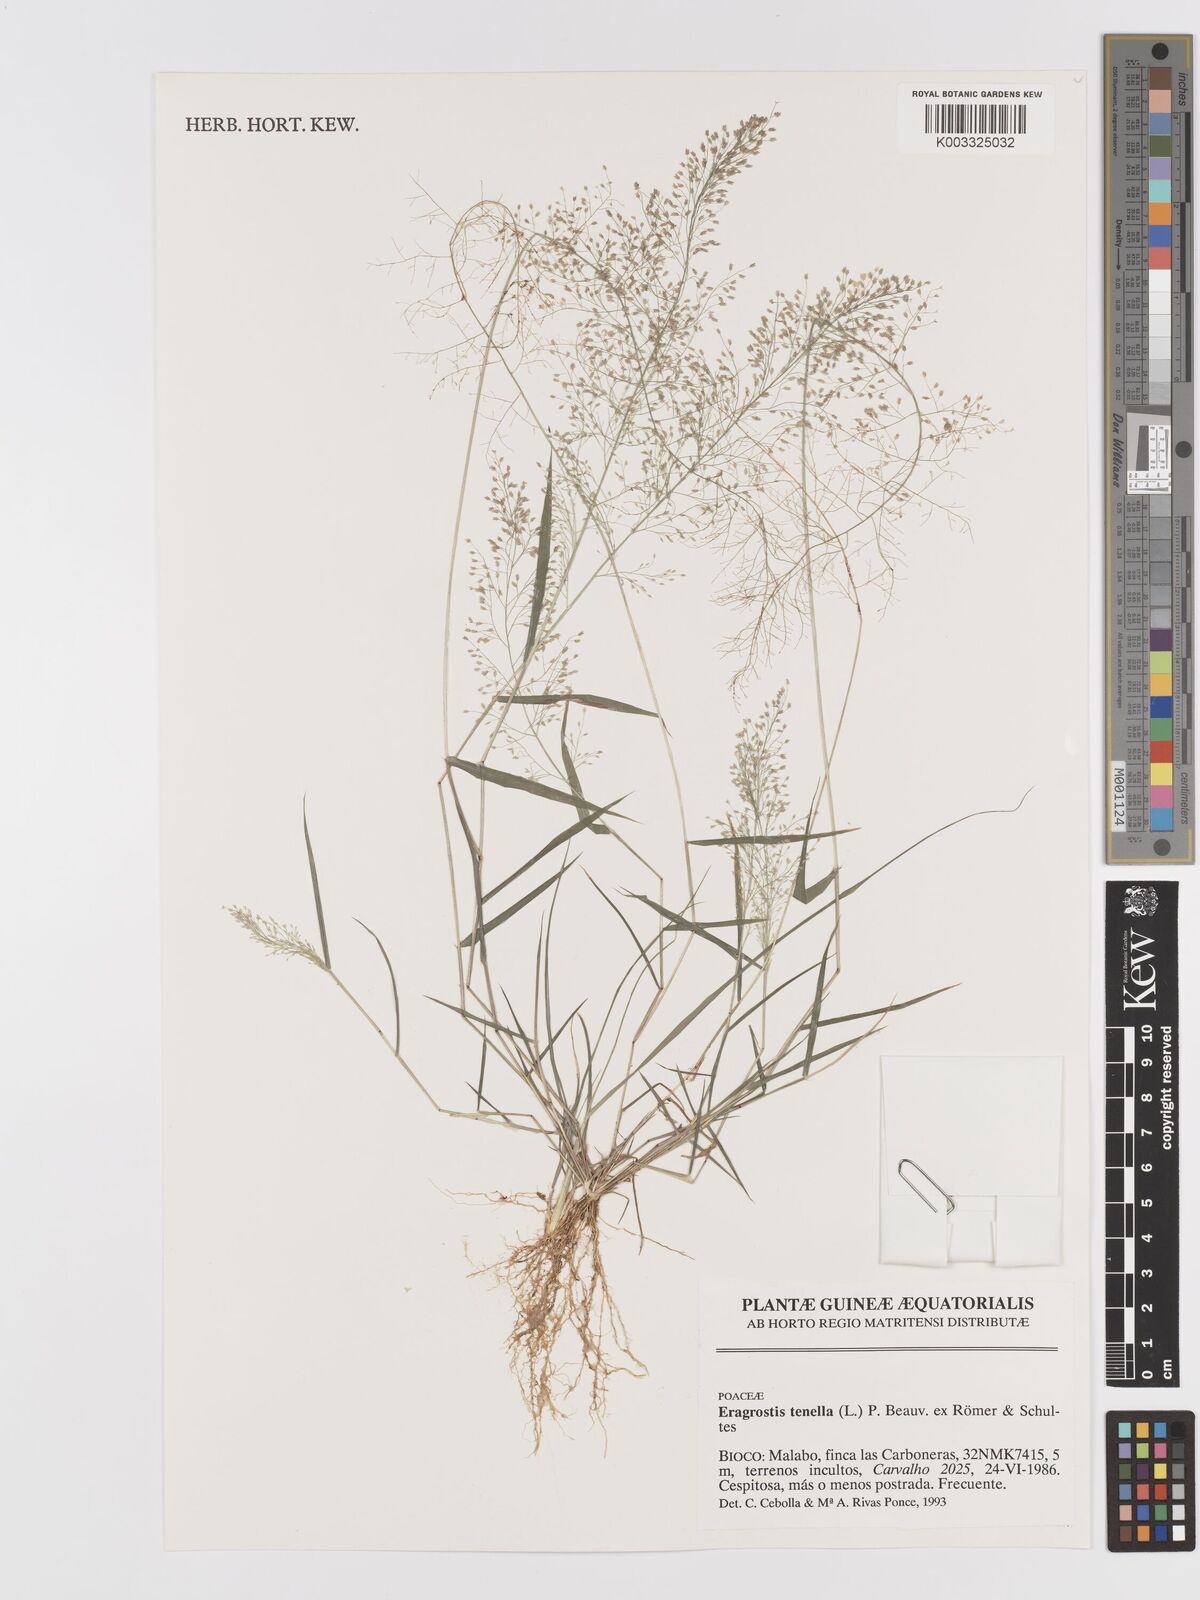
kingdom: Plantae
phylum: Tracheophyta
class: Liliopsida
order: Poales
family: Poaceae
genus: Eragrostis
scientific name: Eragrostis tenella
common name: Japanese lovegrass
